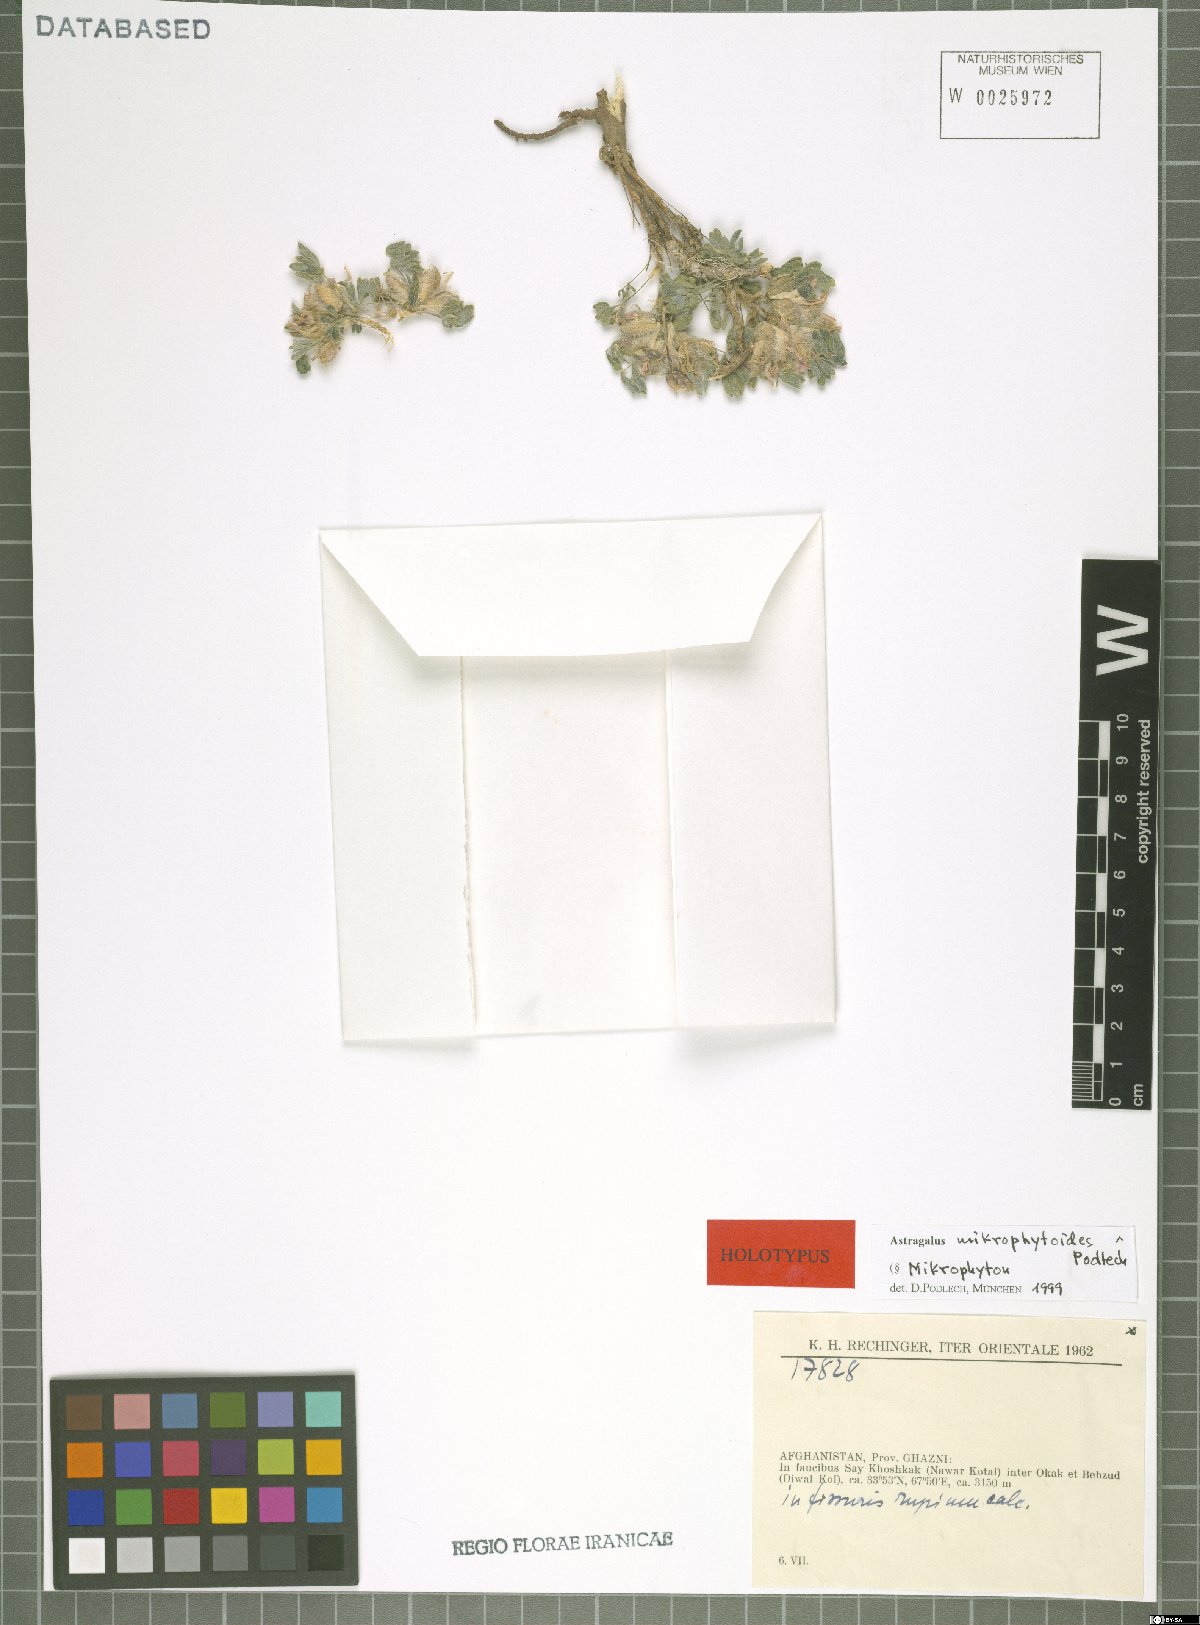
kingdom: Plantae
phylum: Tracheophyta
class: Magnoliopsida
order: Fabales
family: Fabaceae
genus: Astragalus
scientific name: Astragalus mikrophytoides
